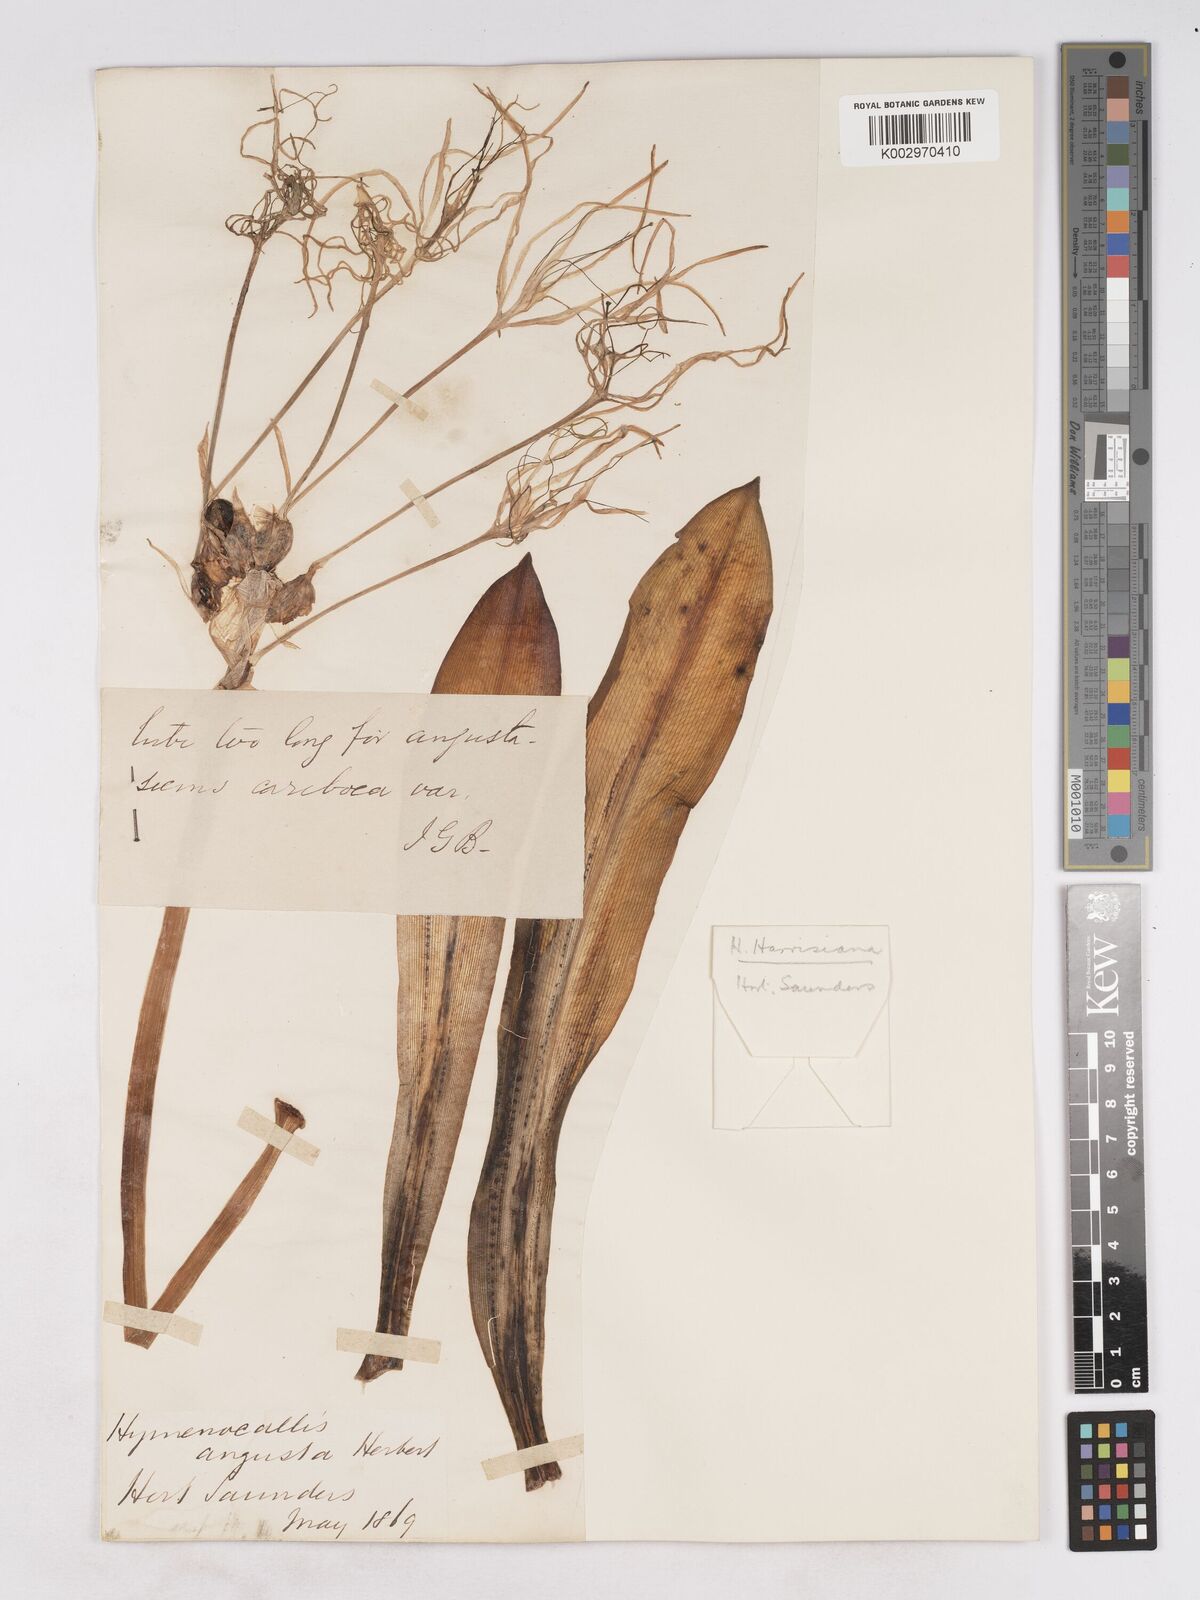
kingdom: Plantae
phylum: Tracheophyta
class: Liliopsida
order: Asparagales
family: Amaryllidaceae
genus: Hymenocallis
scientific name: Hymenocallis harrisiana
